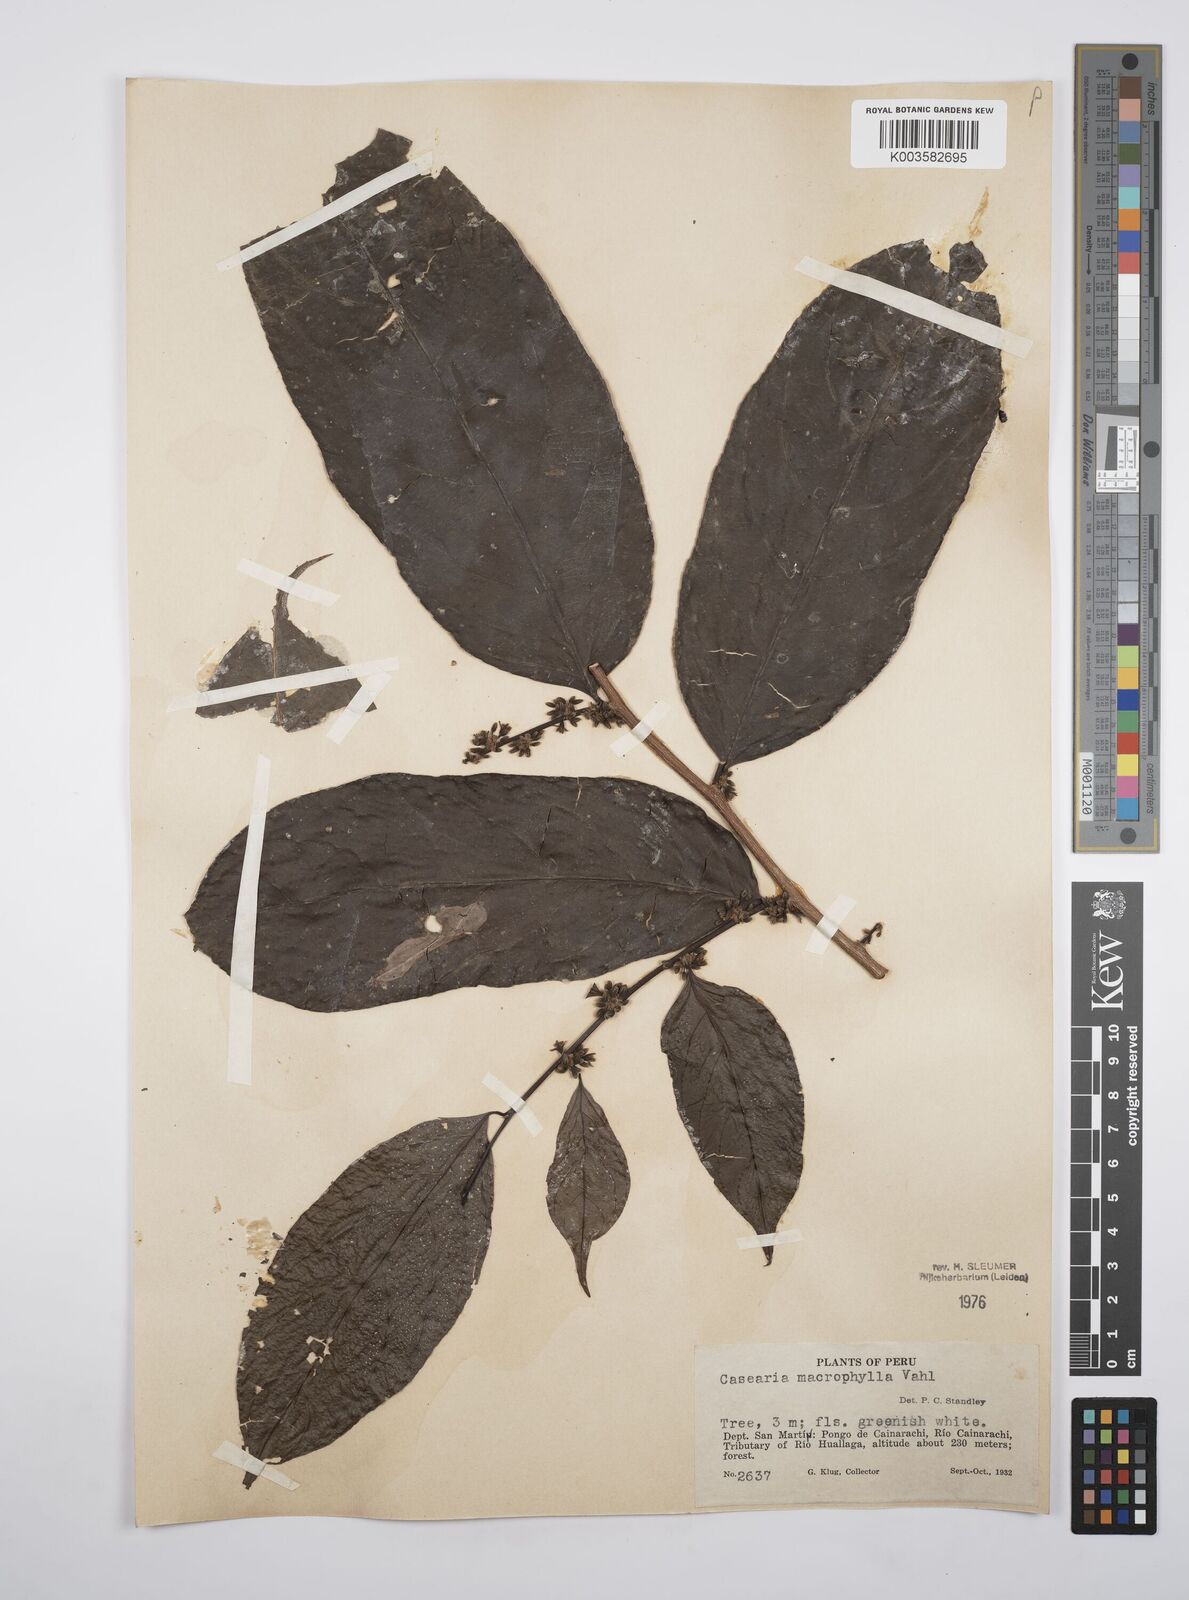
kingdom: Plantae
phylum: Tracheophyta
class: Magnoliopsida
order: Malpighiales
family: Salicaceae
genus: Casearia
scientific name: Casearia pitumba
